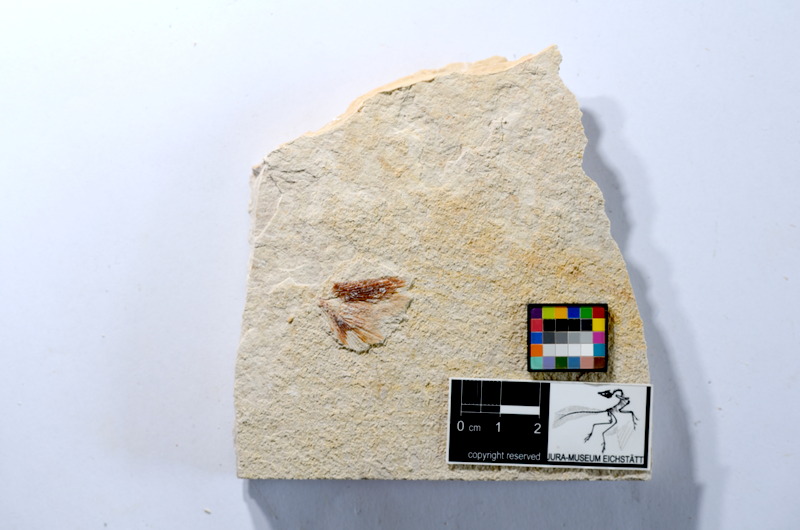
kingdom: Animalia
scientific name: Animalia
